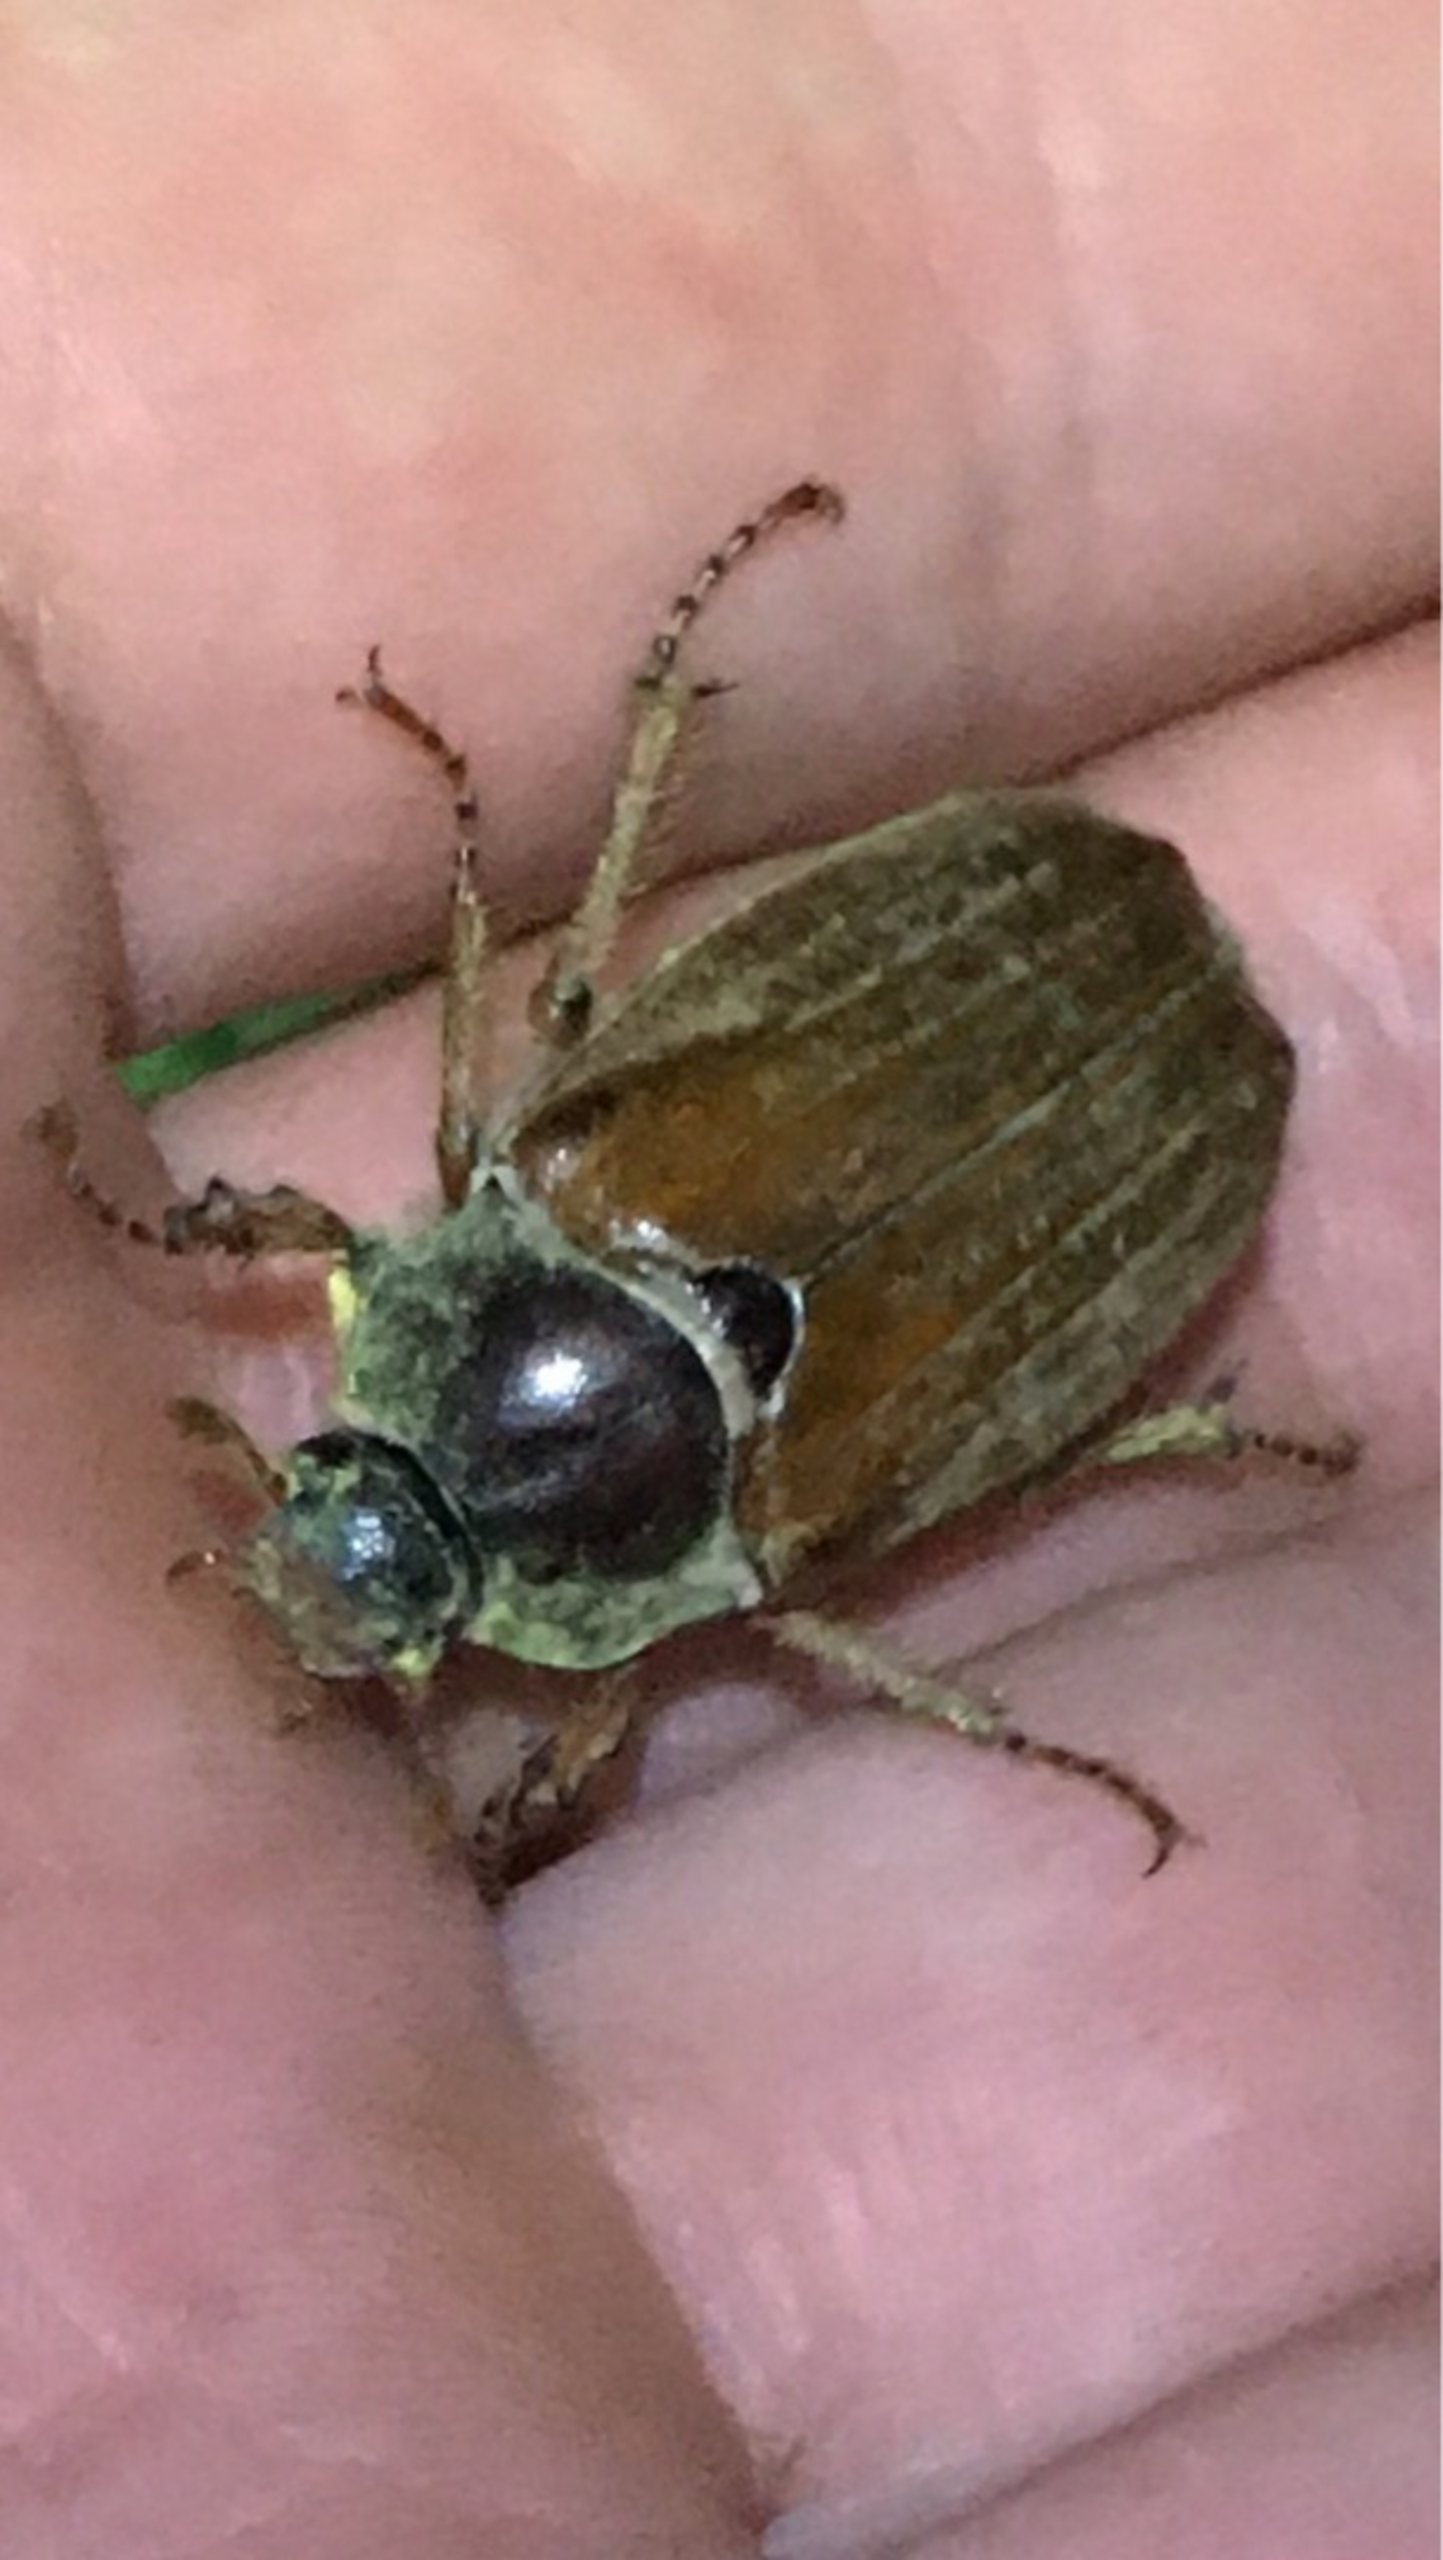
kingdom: Animalia
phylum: Arthropoda
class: Insecta
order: Coleoptera
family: Scarabaeidae
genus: Melolontha
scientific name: Melolontha melolontha
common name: Almindelig oldenborre
